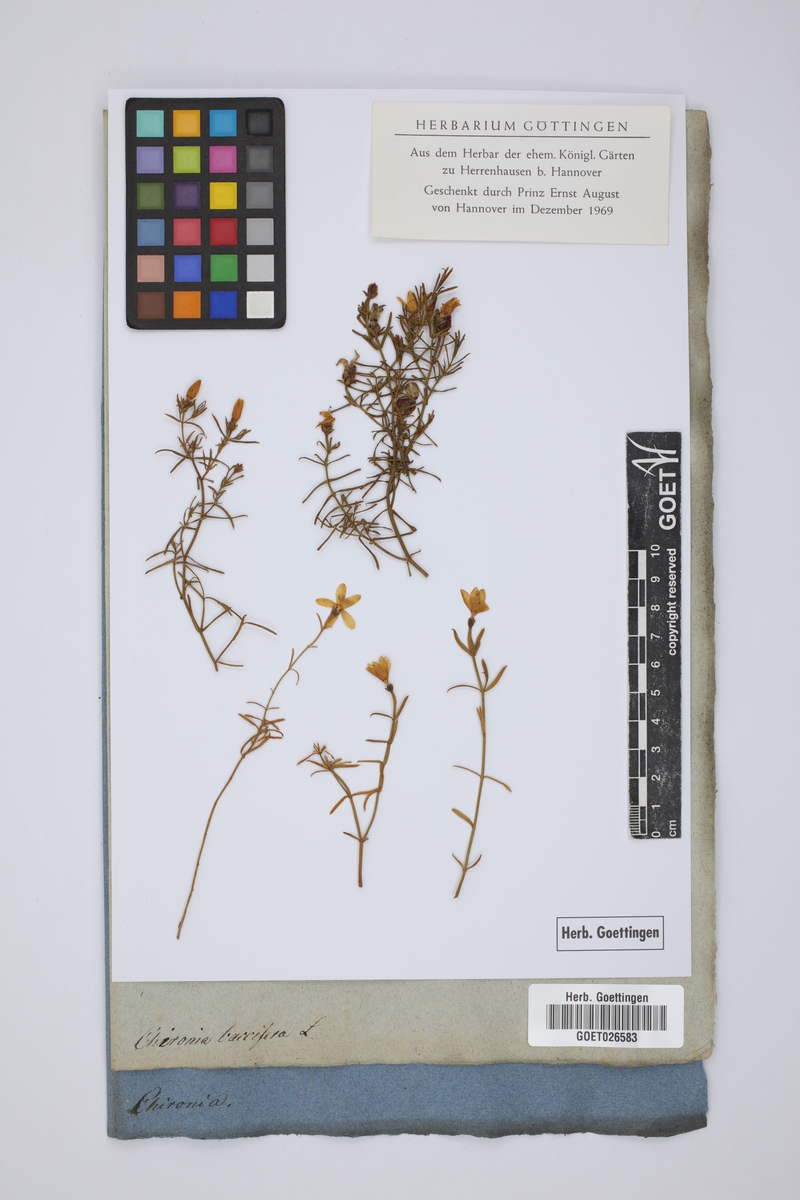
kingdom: Plantae
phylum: Tracheophyta
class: Magnoliopsida
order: Gentianales
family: Gentianaceae
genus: Chironia
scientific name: Chironia baccifera
